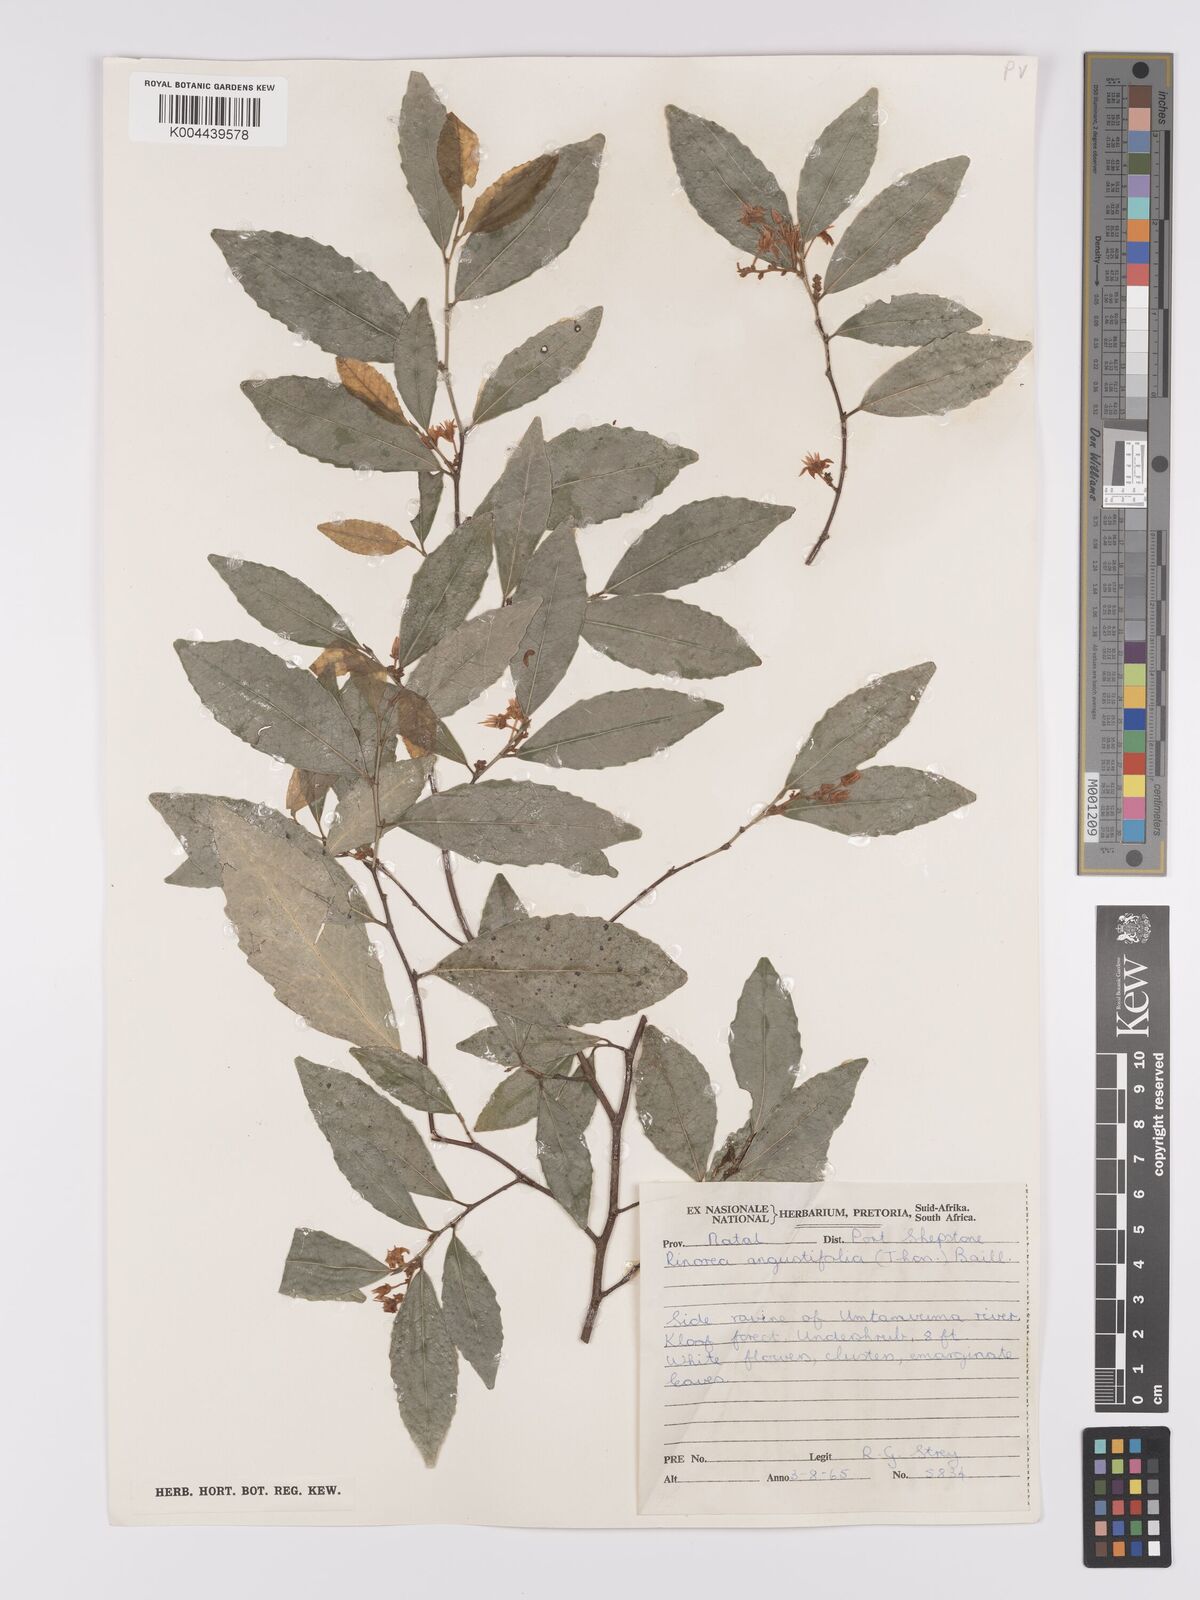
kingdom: Plantae
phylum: Tracheophyta
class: Magnoliopsida
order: Malpighiales
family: Violaceae
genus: Rinorea
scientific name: Rinorea angustifolia
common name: White violet-bush
